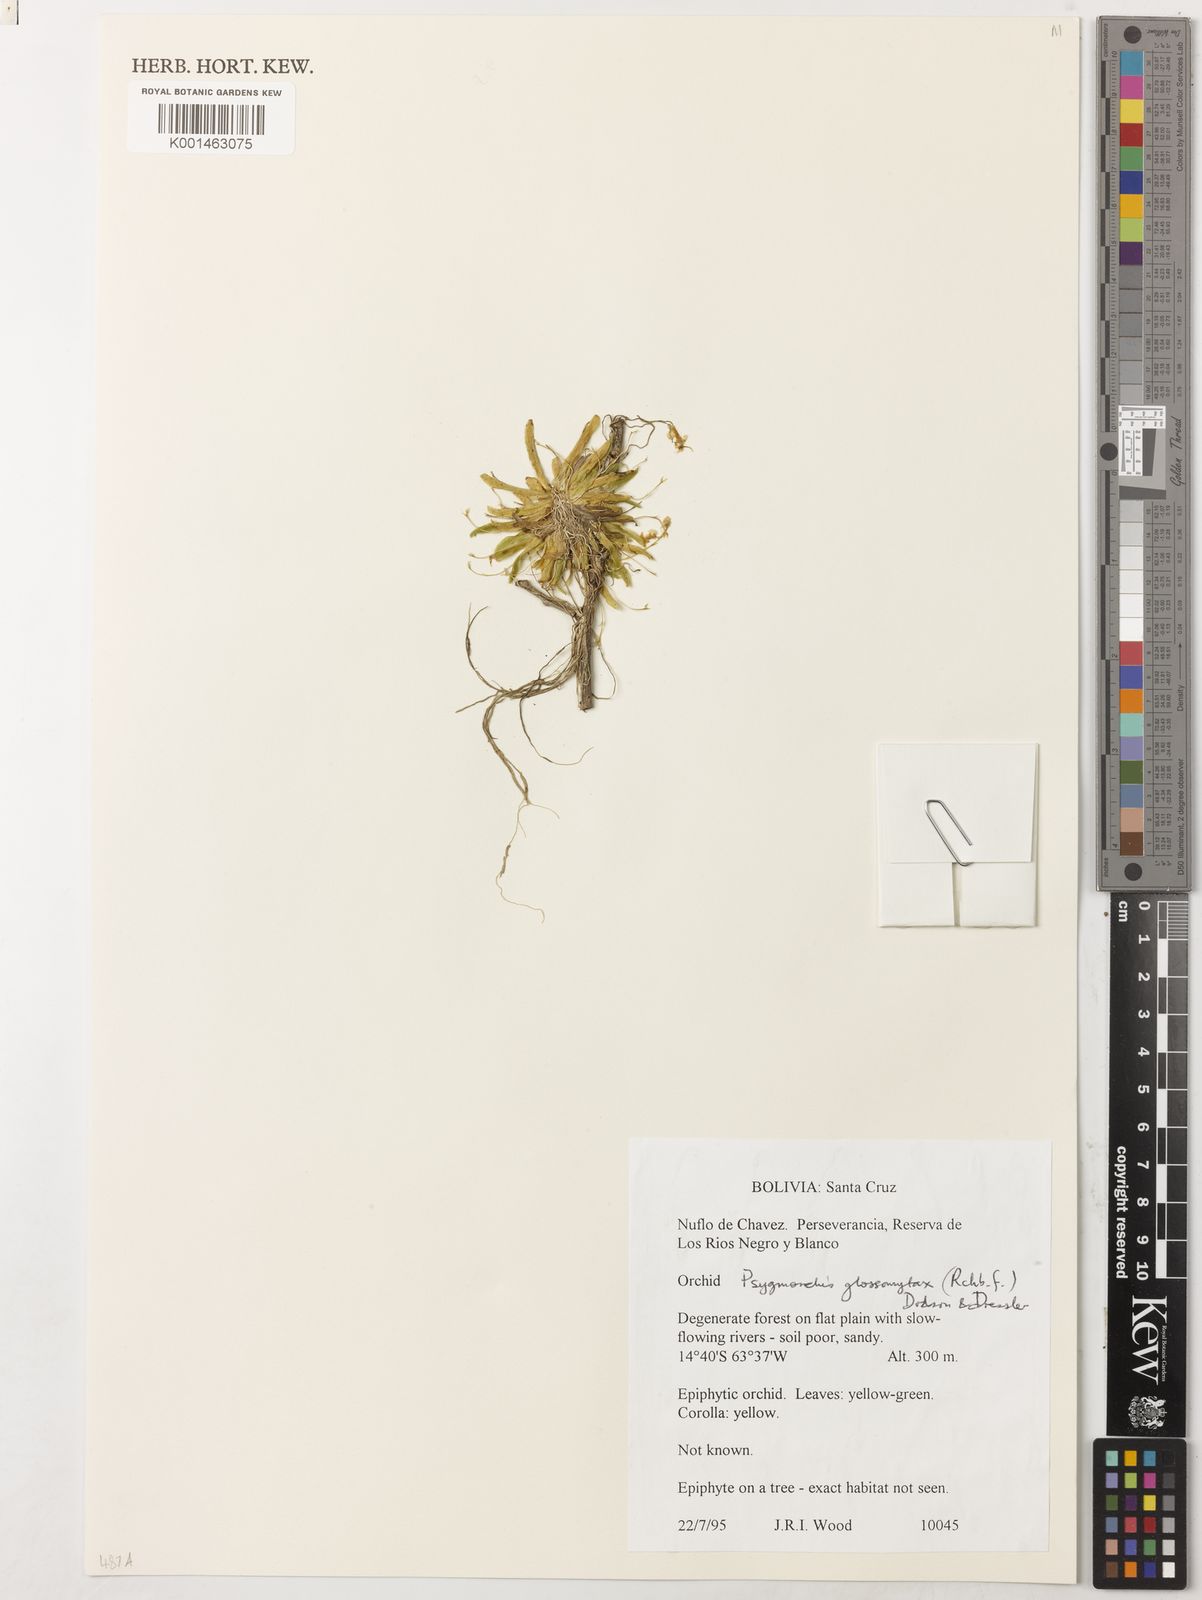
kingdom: Plantae
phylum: Tracheophyta
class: Liliopsida
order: Asparagales
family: Orchidaceae
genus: Erycina
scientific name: Erycina glossomystax
